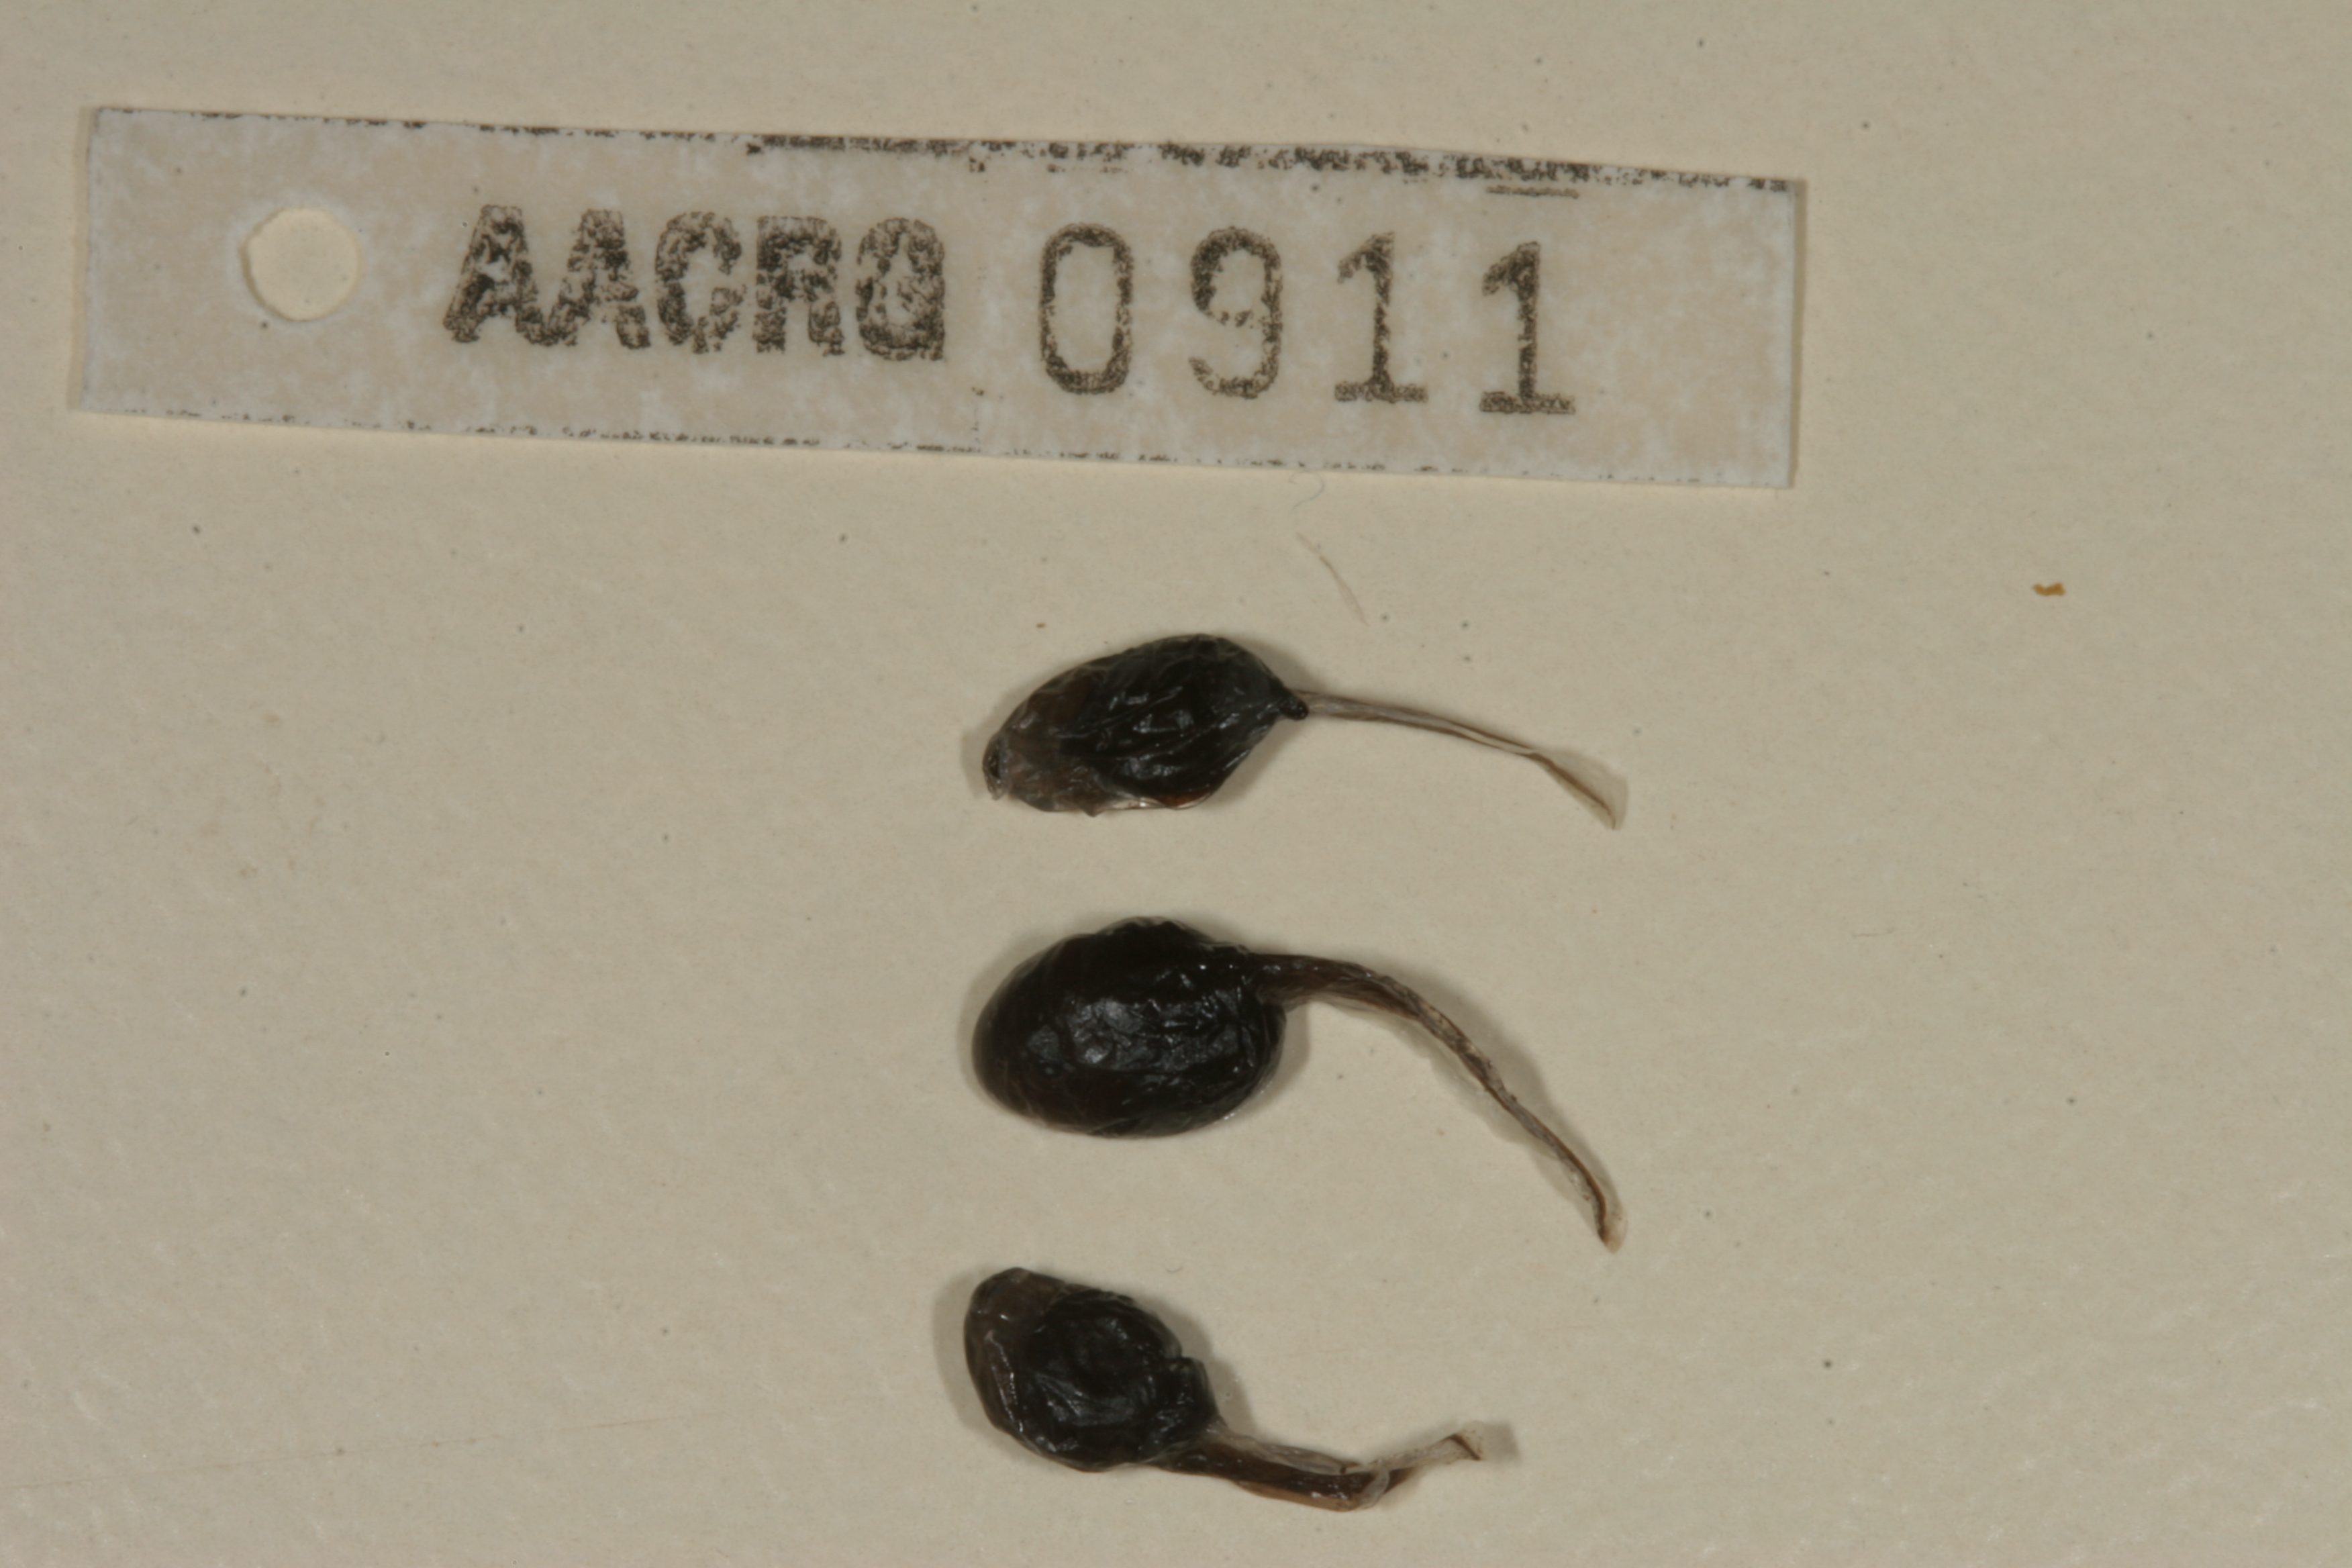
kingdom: Animalia
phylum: Chordata
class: Amphibia
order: Anura
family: Bufonidae
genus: Sclerophrys
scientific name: Sclerophrys gutturalis
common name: African common toad
